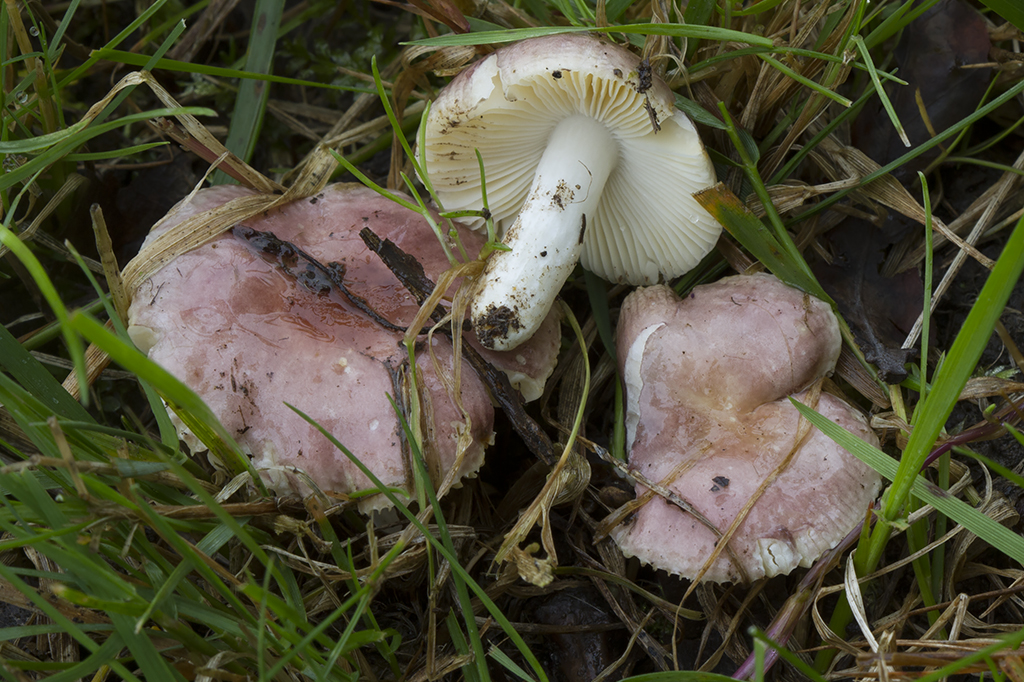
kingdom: Fungi
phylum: Basidiomycota
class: Agaricomycetes
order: Russulales
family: Russulaceae
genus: Russula
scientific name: Russula odorata
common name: duft-skørhat
